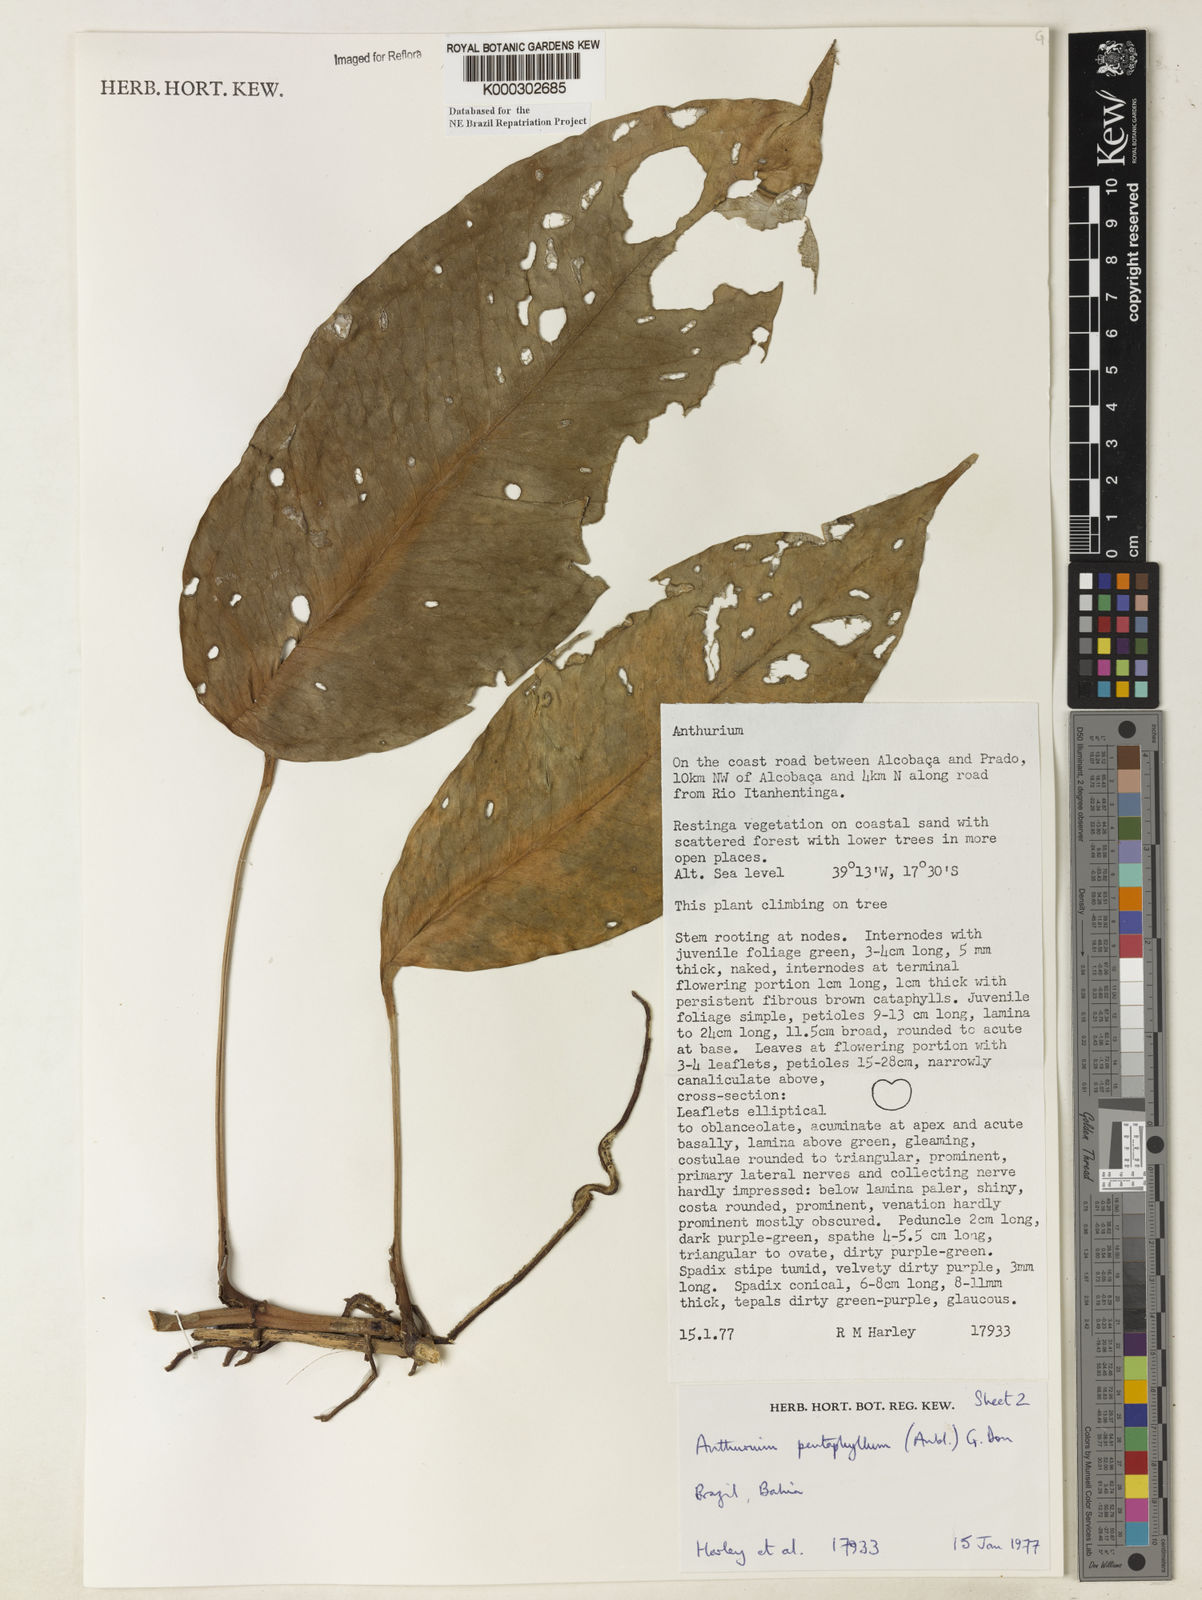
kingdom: Plantae
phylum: Tracheophyta
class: Liliopsida
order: Alismatales
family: Araceae
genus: Anthurium
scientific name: Anthurium pentaphyllum
